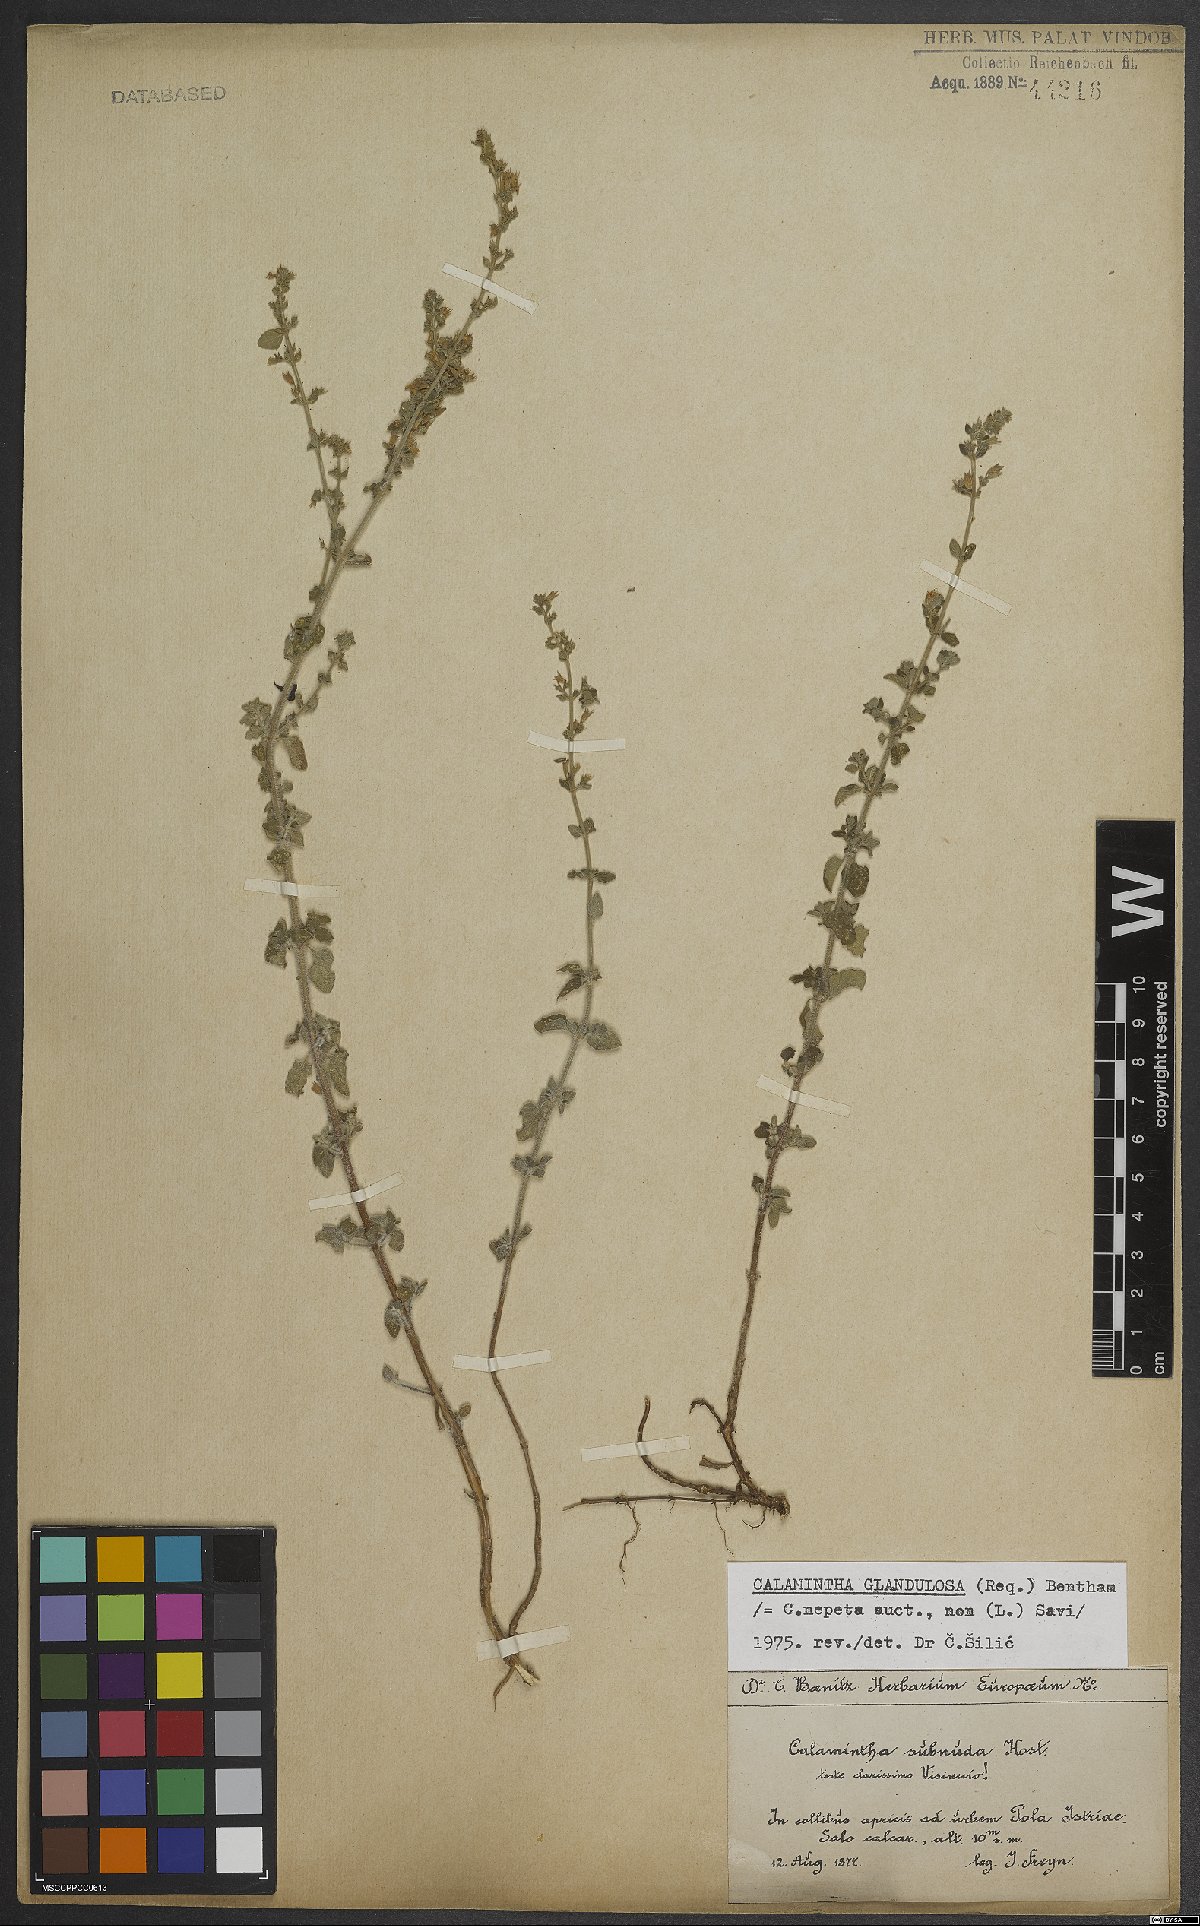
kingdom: Plantae
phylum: Tracheophyta
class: Magnoliopsida
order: Lamiales
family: Lamiaceae
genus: Clinopodium
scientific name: Clinopodium nepeta
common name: Lesser calamint
